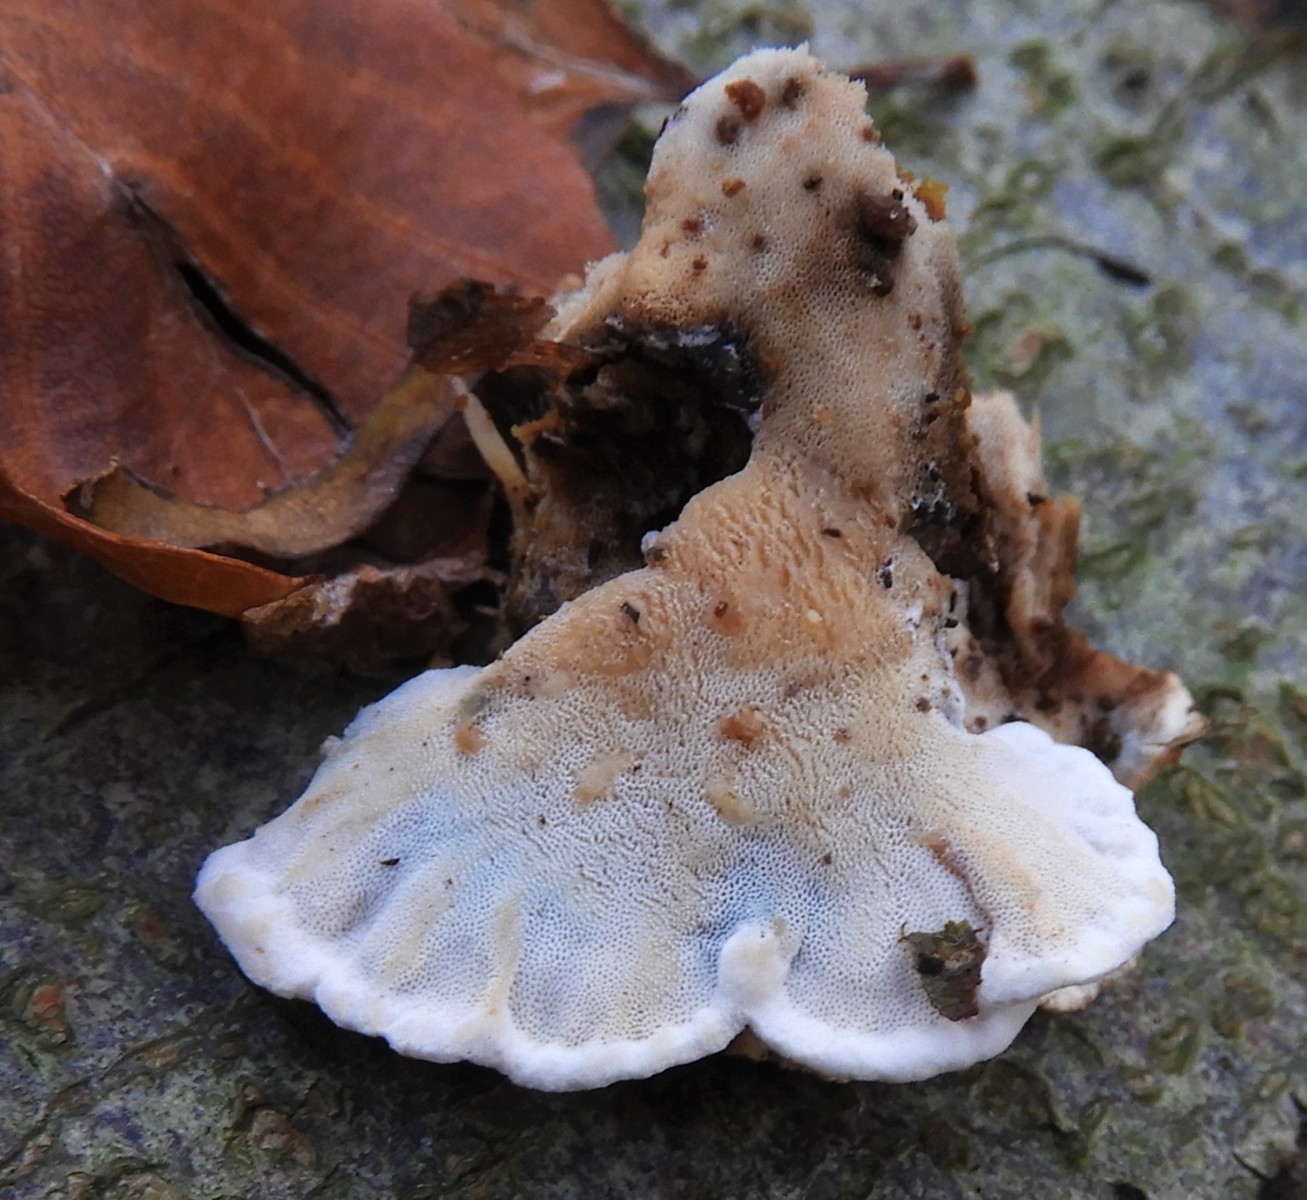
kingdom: Fungi
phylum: Basidiomycota
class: Agaricomycetes
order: Polyporales
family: Incrustoporiaceae
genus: Skeletocutis
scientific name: Skeletocutis nemoralis
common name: stor krystalporesvamp
